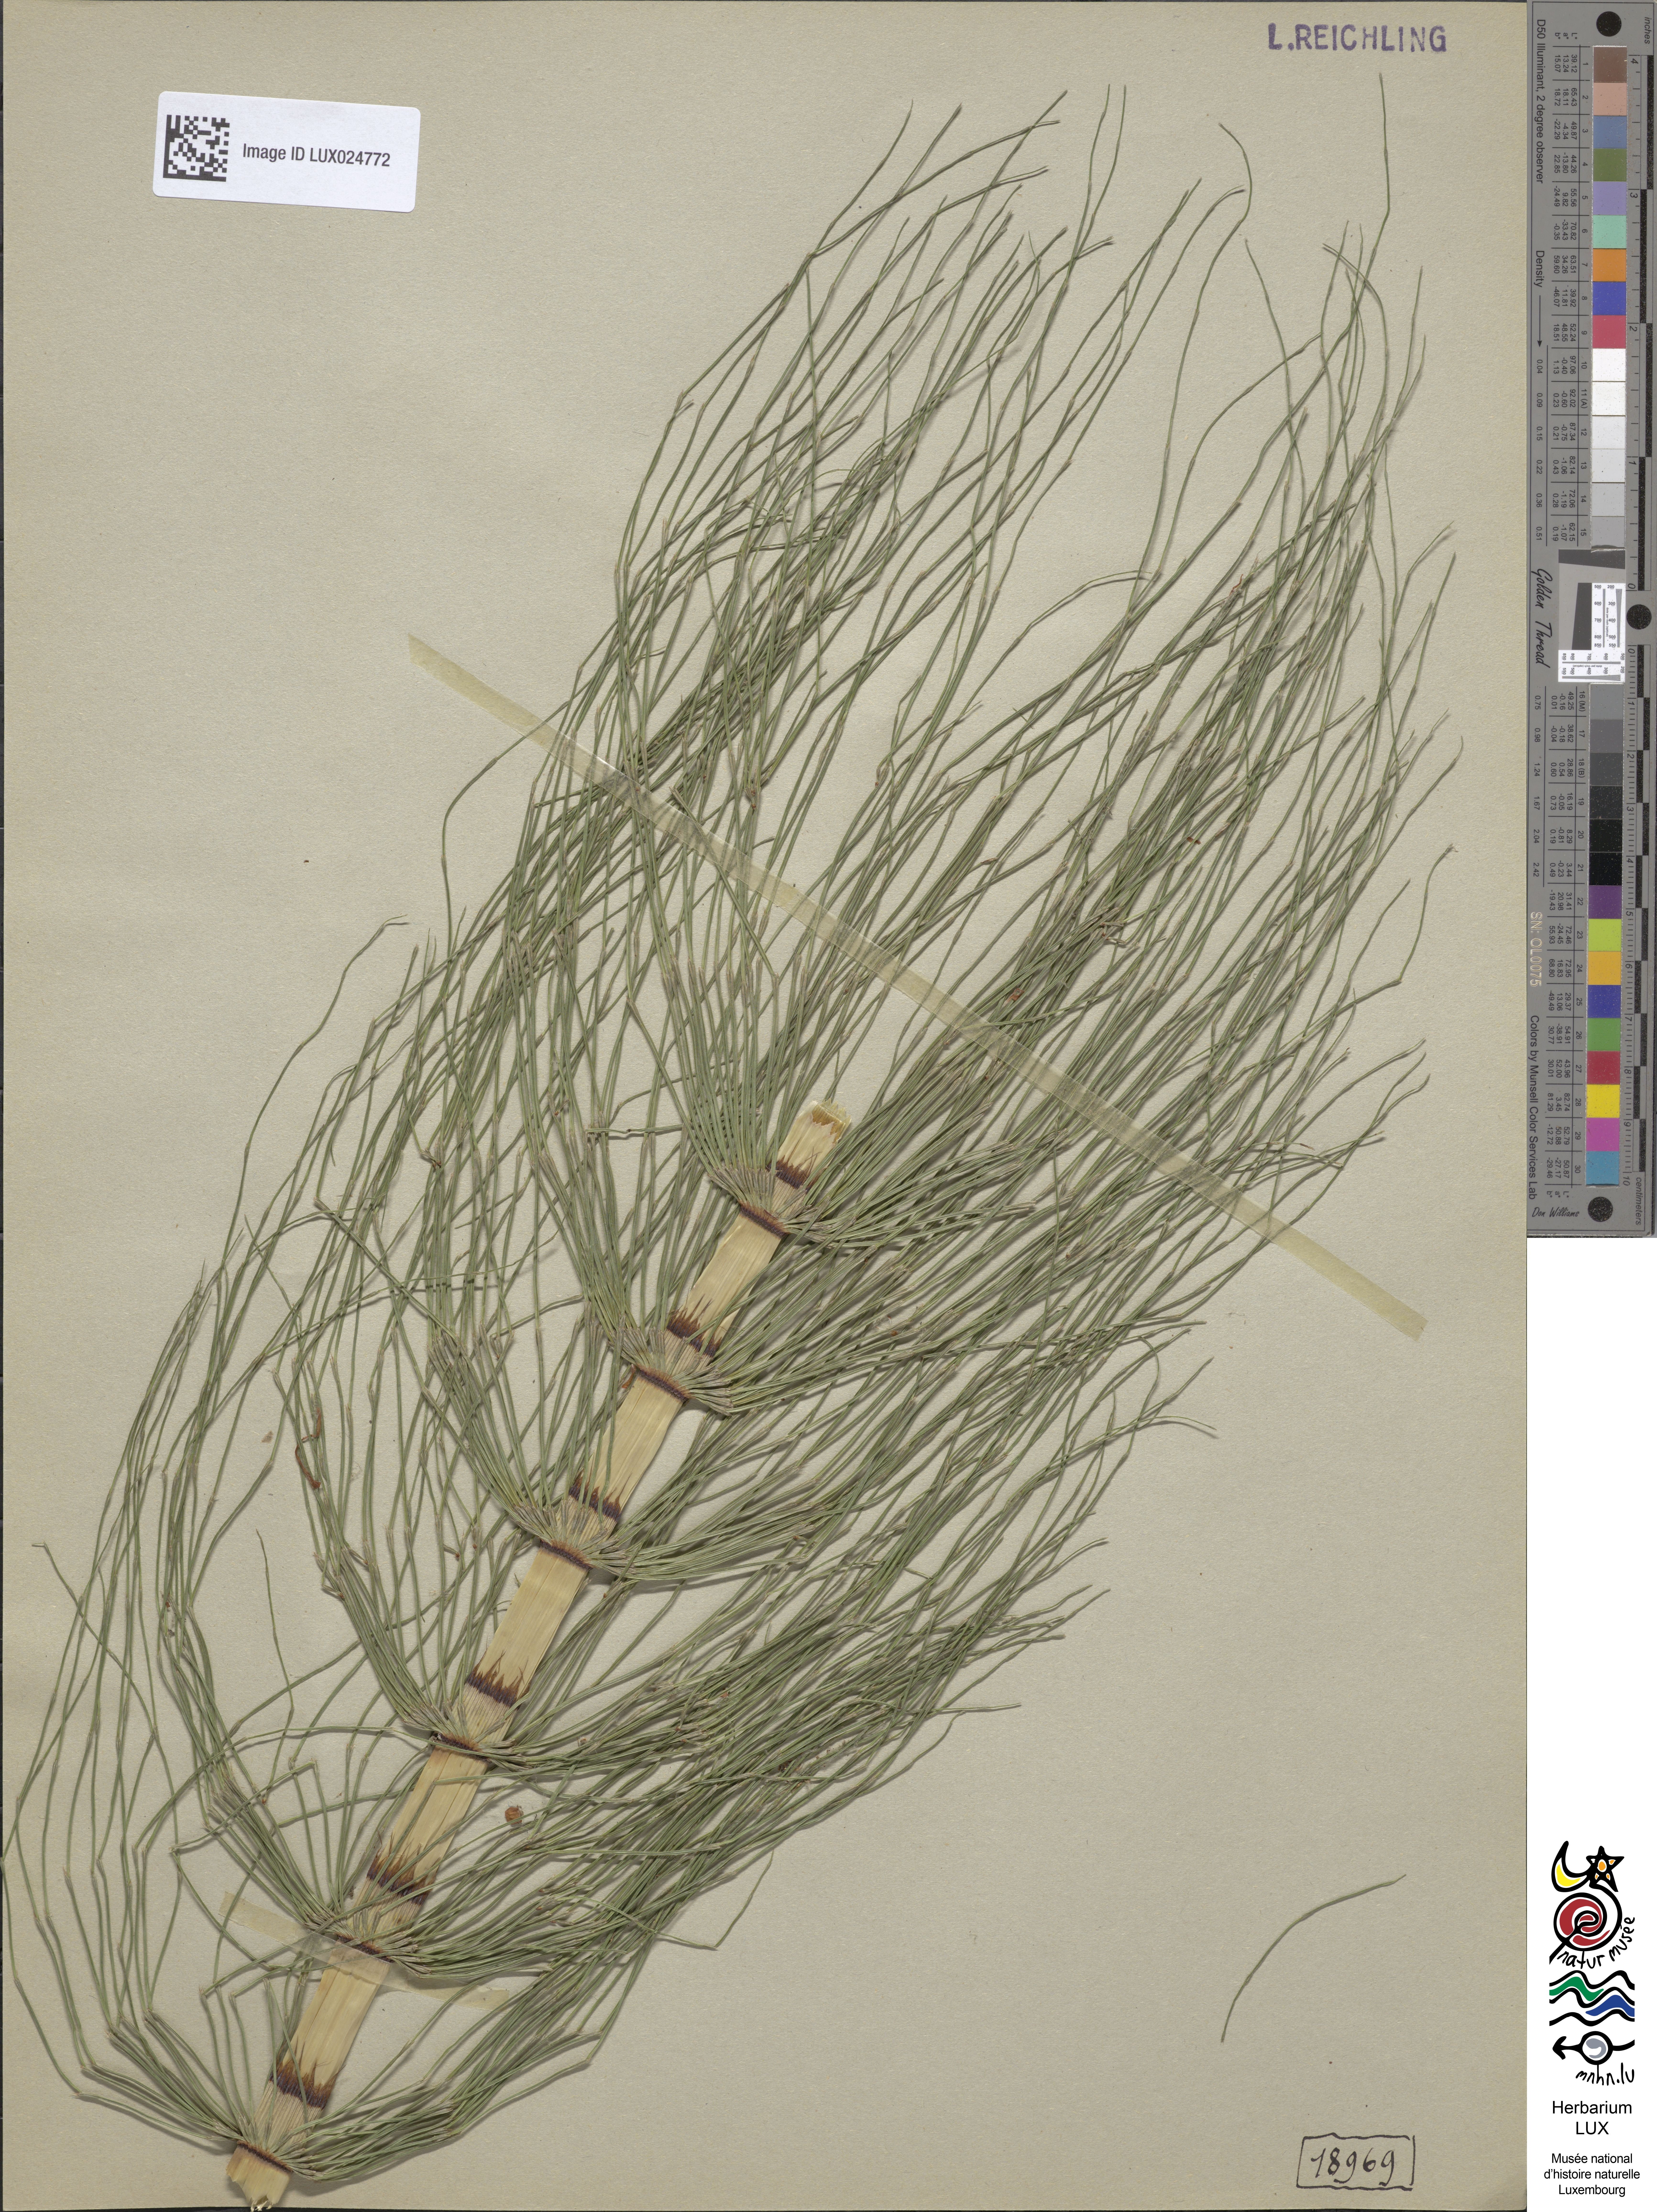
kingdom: Plantae
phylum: Tracheophyta
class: Polypodiopsida
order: Equisetales
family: Equisetaceae
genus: Equisetum
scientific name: Equisetum telmateia
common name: Great horsetail
